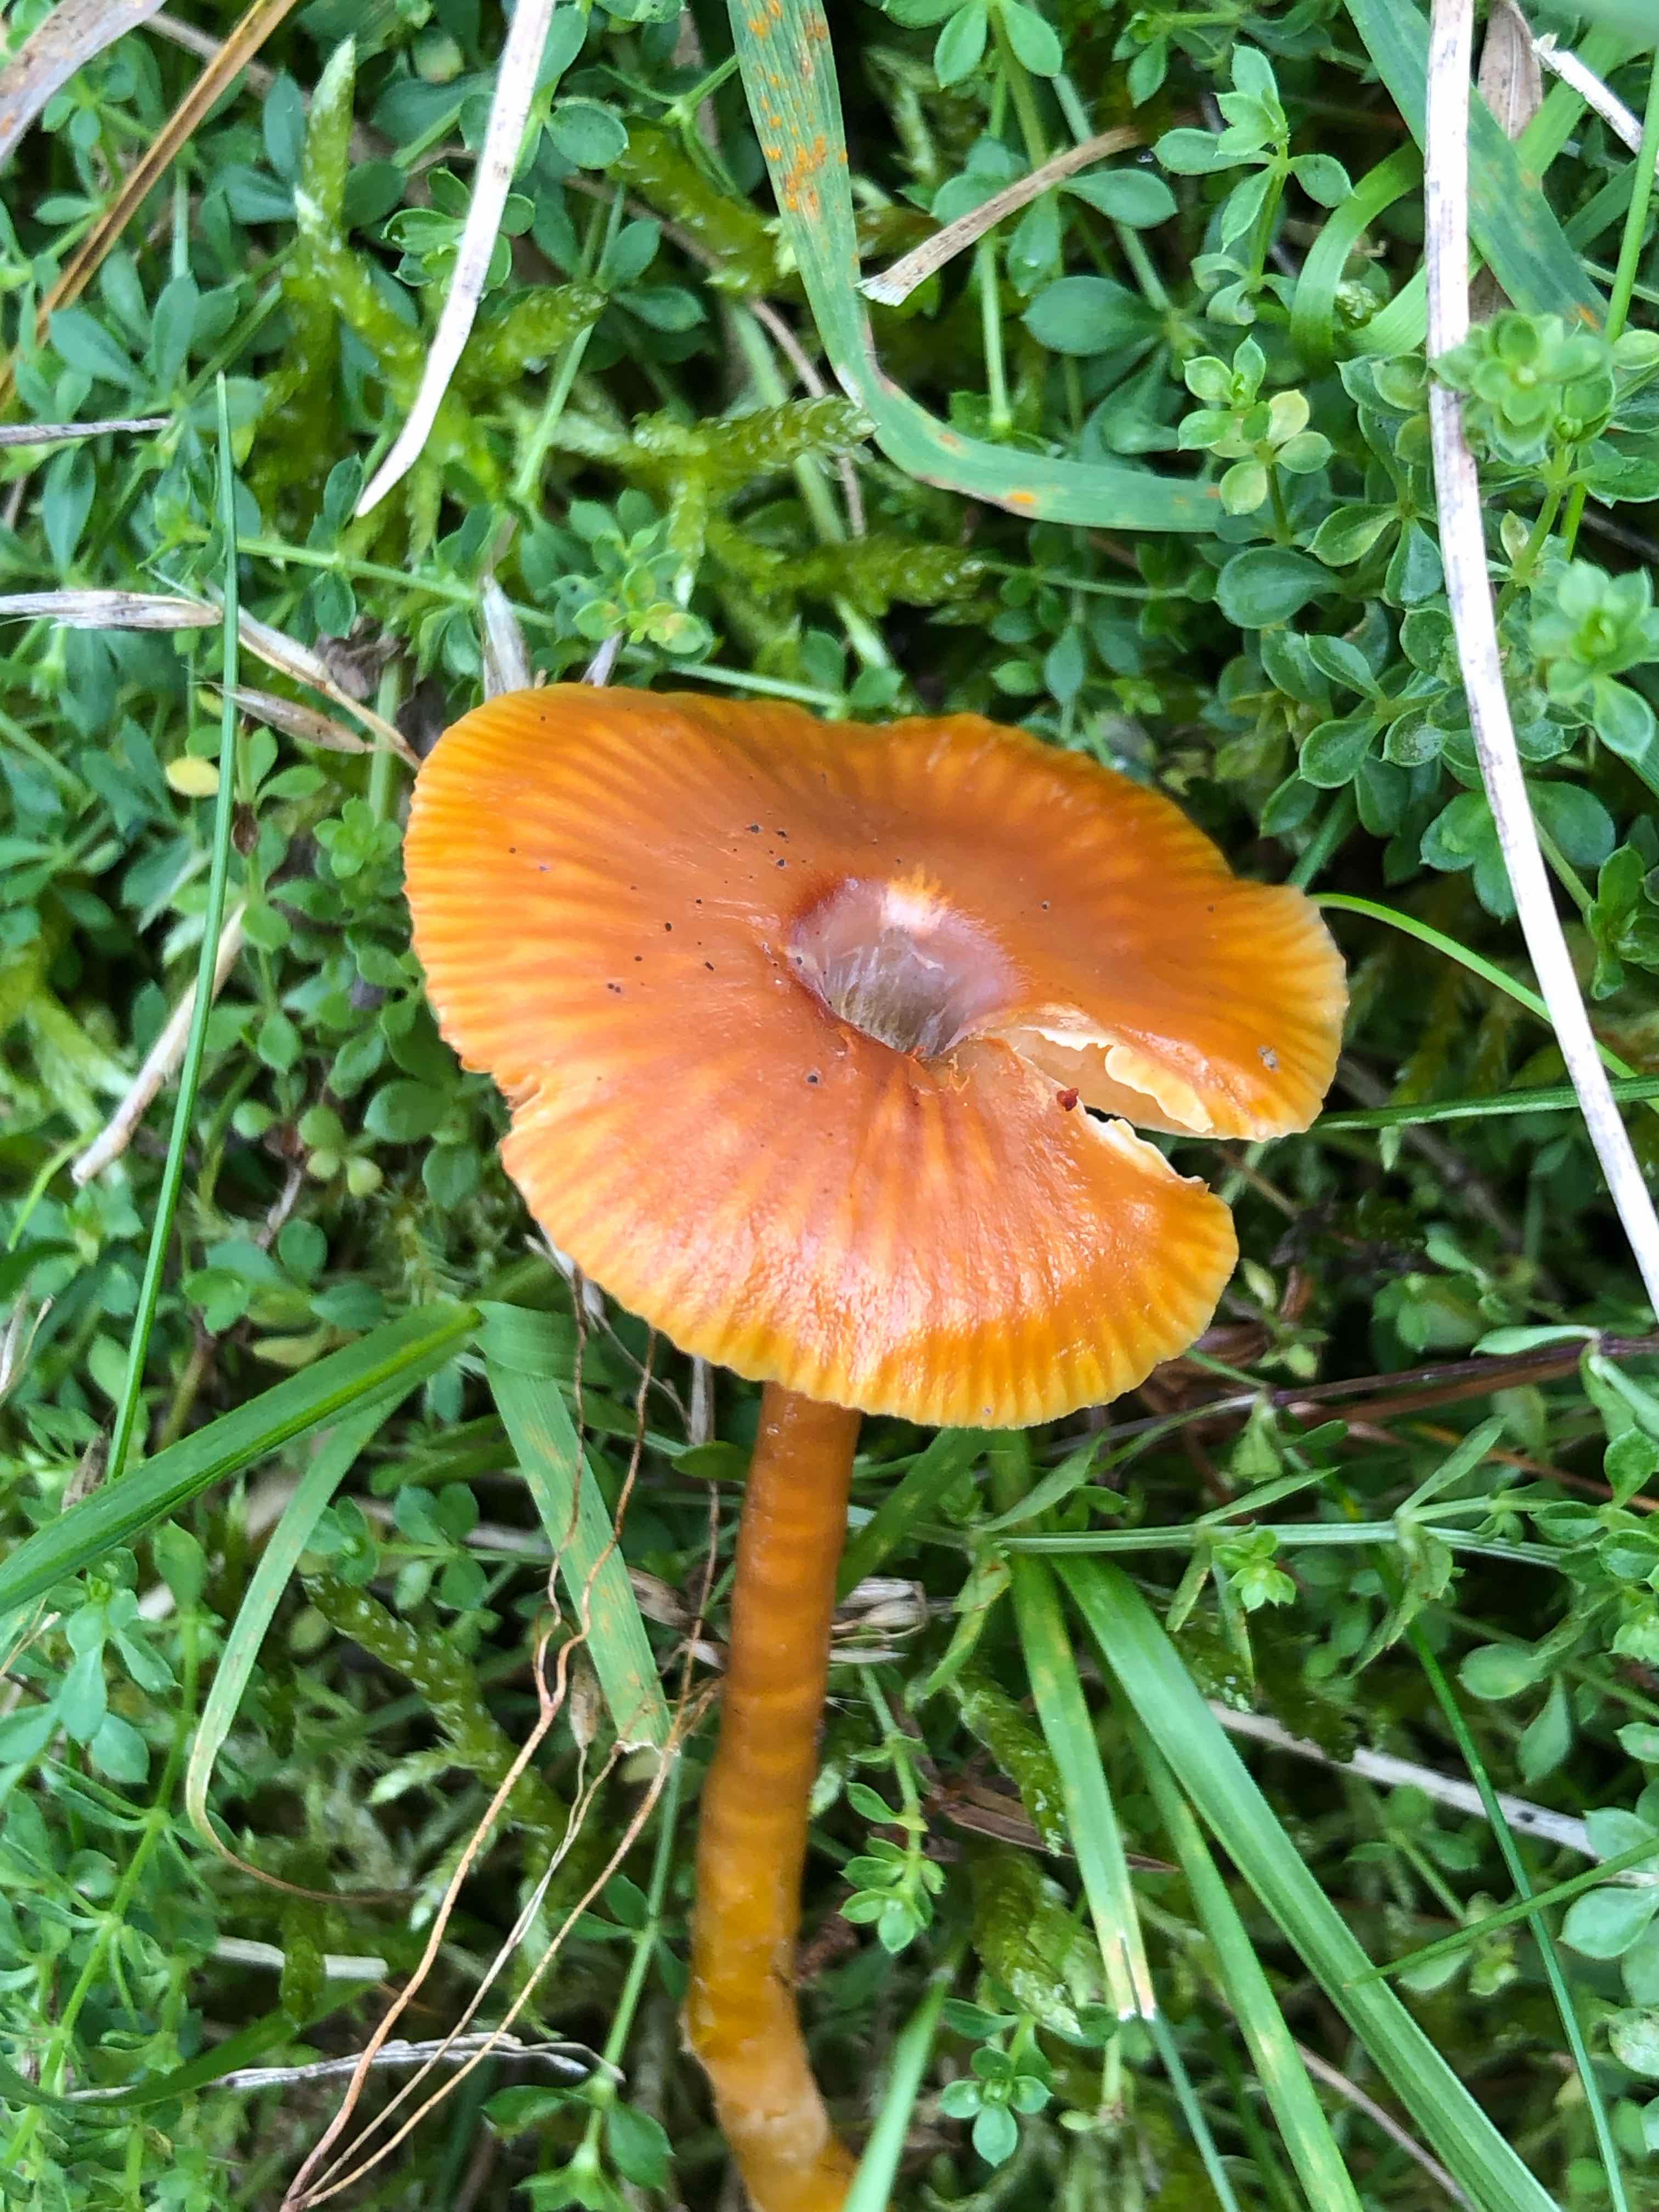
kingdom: Fungi
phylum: Basidiomycota
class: Agaricomycetes
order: Agaricales
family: Hygrophoraceae
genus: Gliophorus
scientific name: Gliophorus laetus
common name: brusk-vokshat
